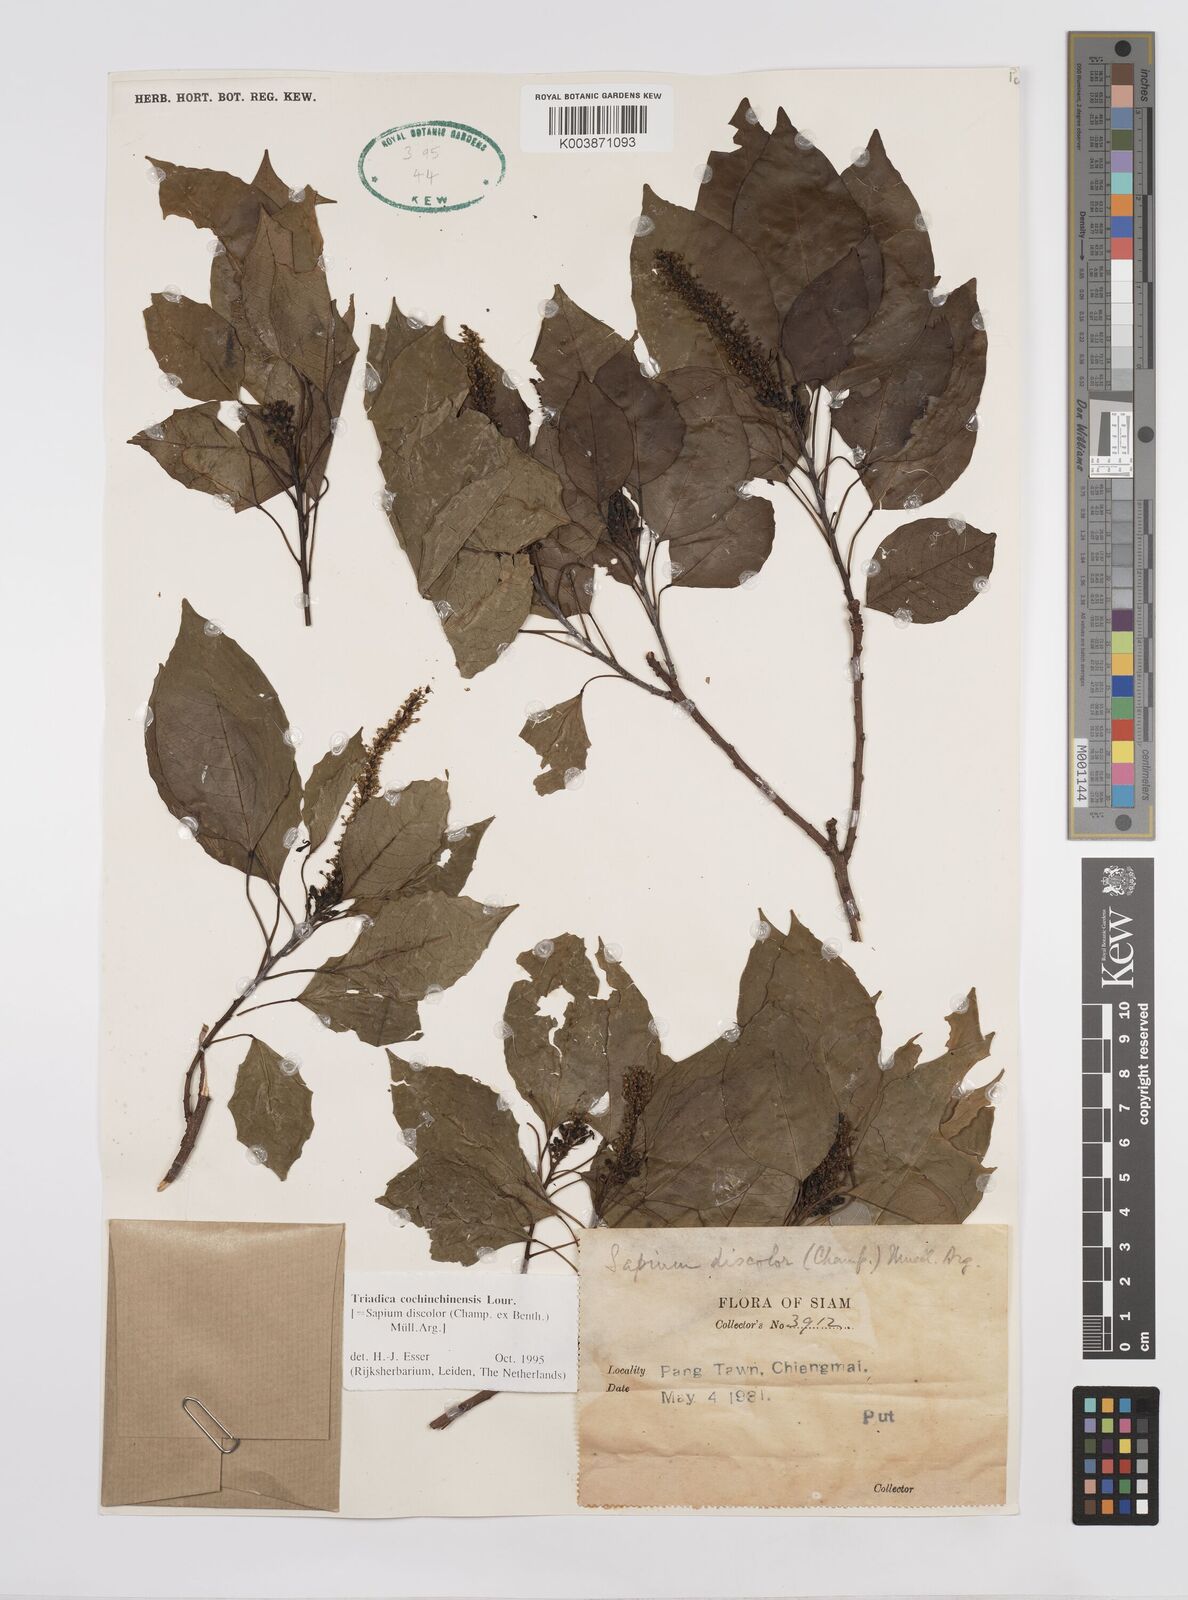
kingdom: Plantae
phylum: Tracheophyta
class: Magnoliopsida
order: Malpighiales
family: Euphorbiaceae
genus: Triadica
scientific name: Triadica cochinchinensis
